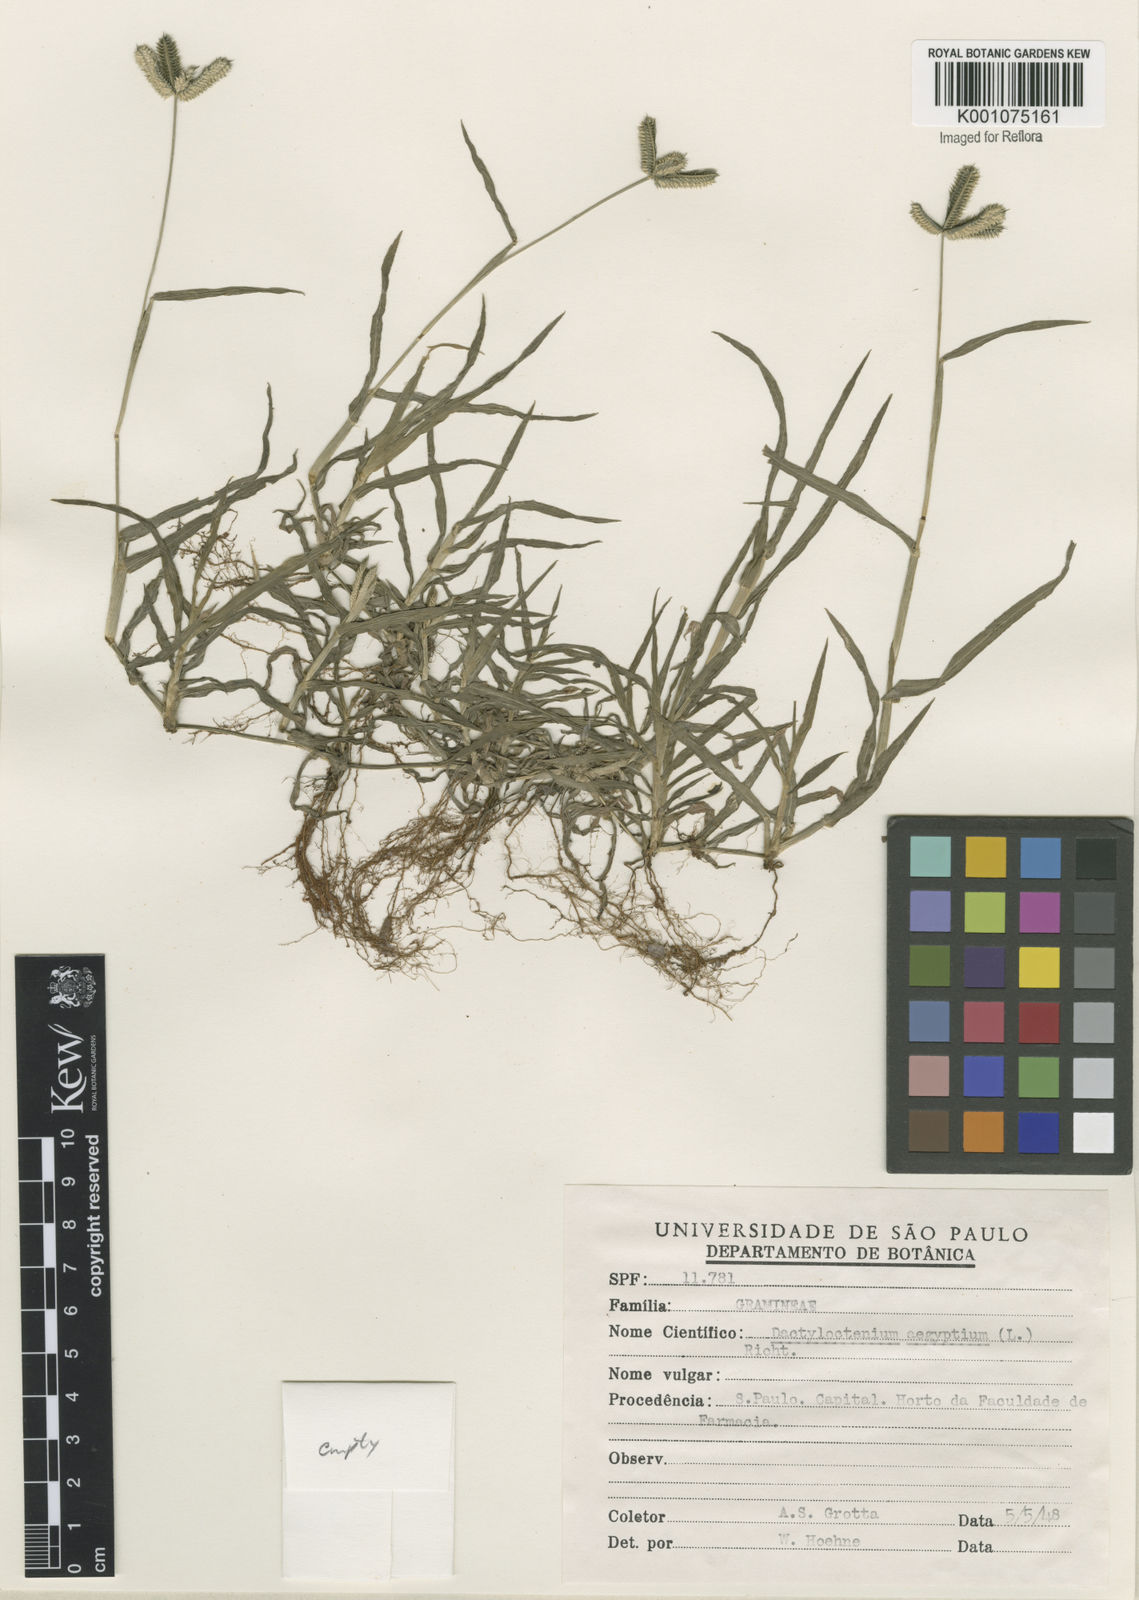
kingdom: Plantae
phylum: Tracheophyta
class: Liliopsida
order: Poales
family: Poaceae
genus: Dactyloctenium
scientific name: Dactyloctenium aegyptium
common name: Egyptian grass
